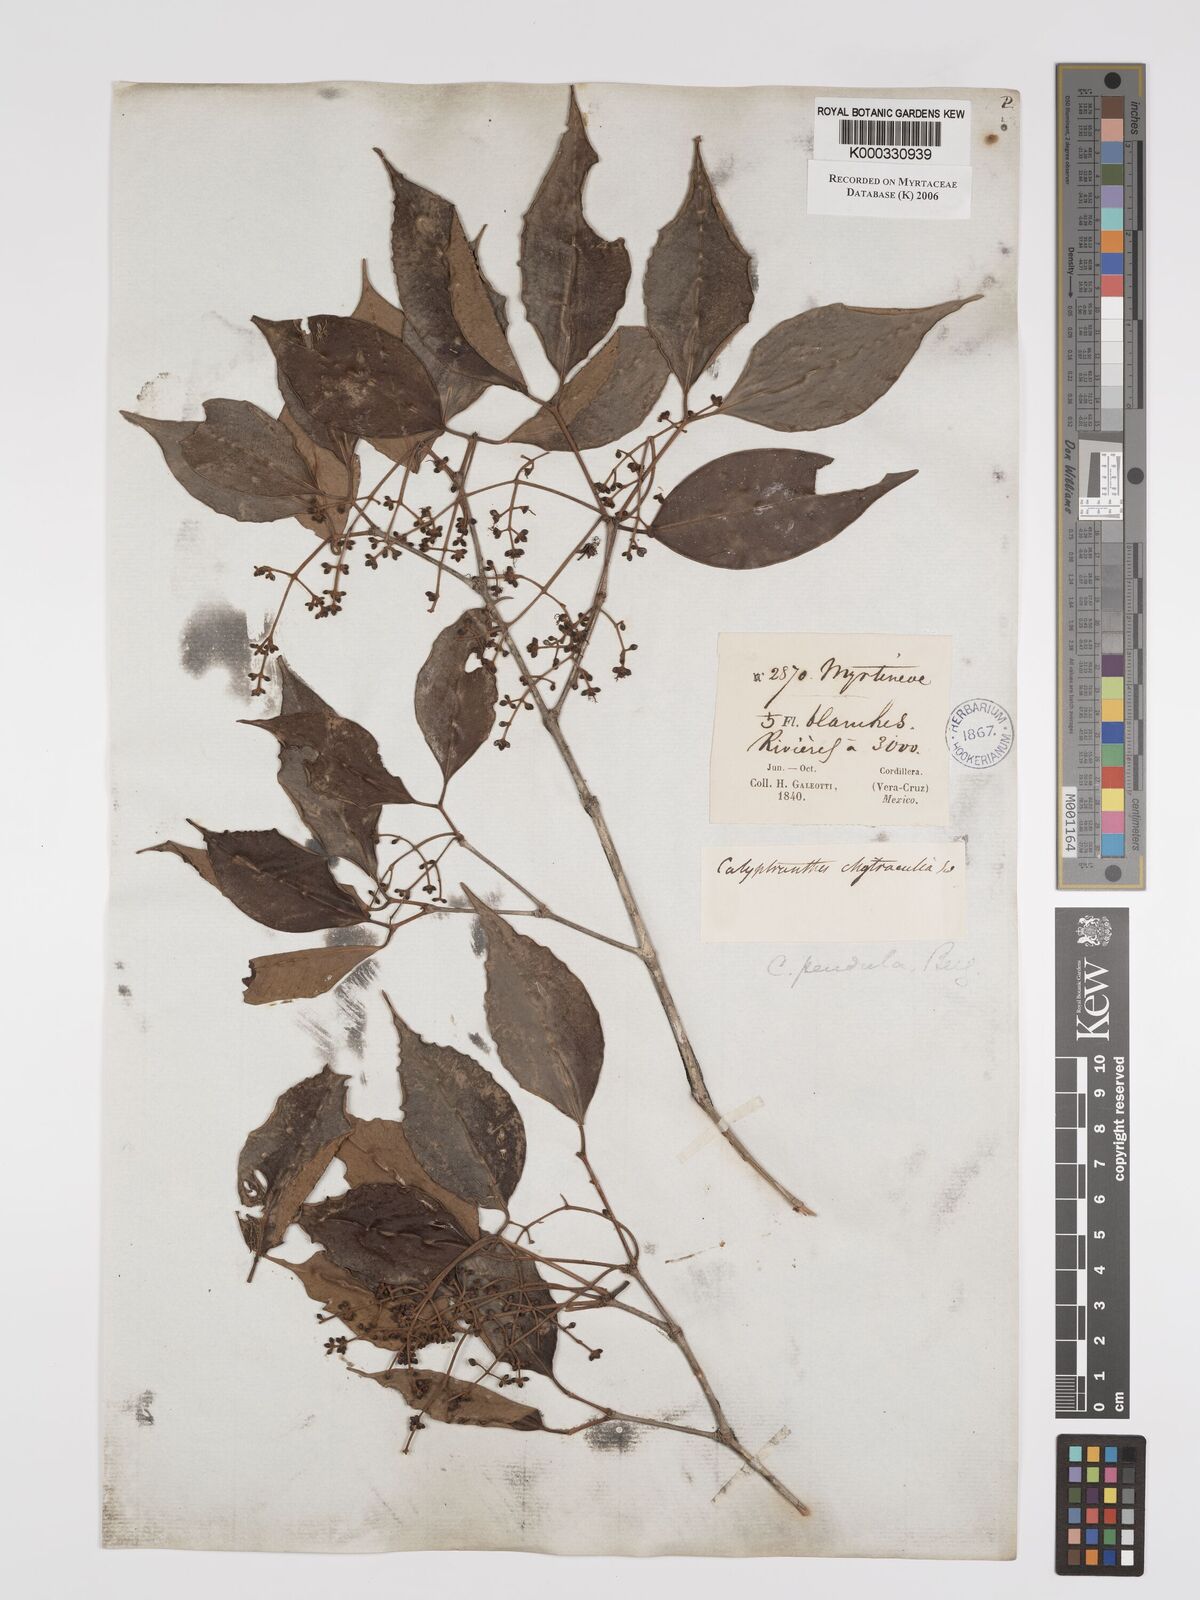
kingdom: Plantae
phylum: Tracheophyta
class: Magnoliopsida
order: Myrtales
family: Myrtaceae
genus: Myrcia
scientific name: Myrcia pendens
